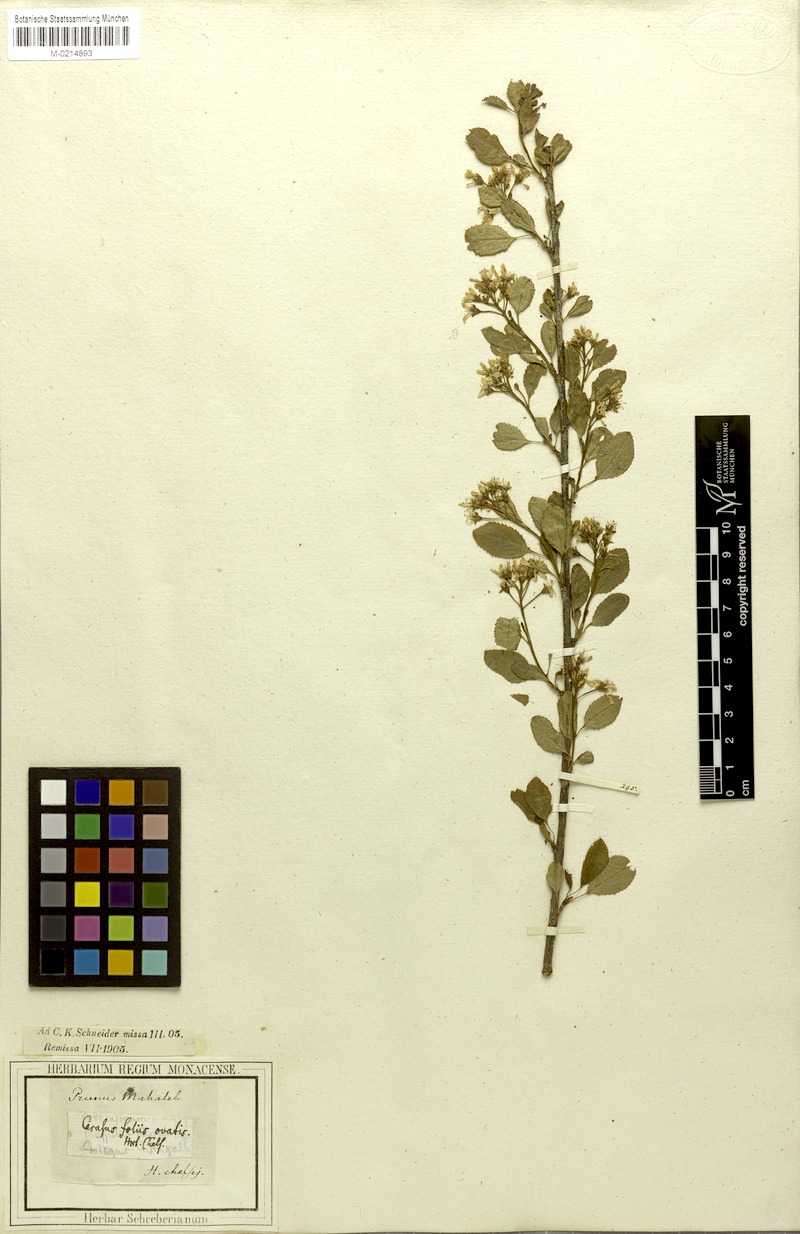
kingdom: Plantae
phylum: Tracheophyta
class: Magnoliopsida
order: Rosales
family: Rosaceae
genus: Prunus
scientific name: Prunus mahaleb
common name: Mahaleb cherry
